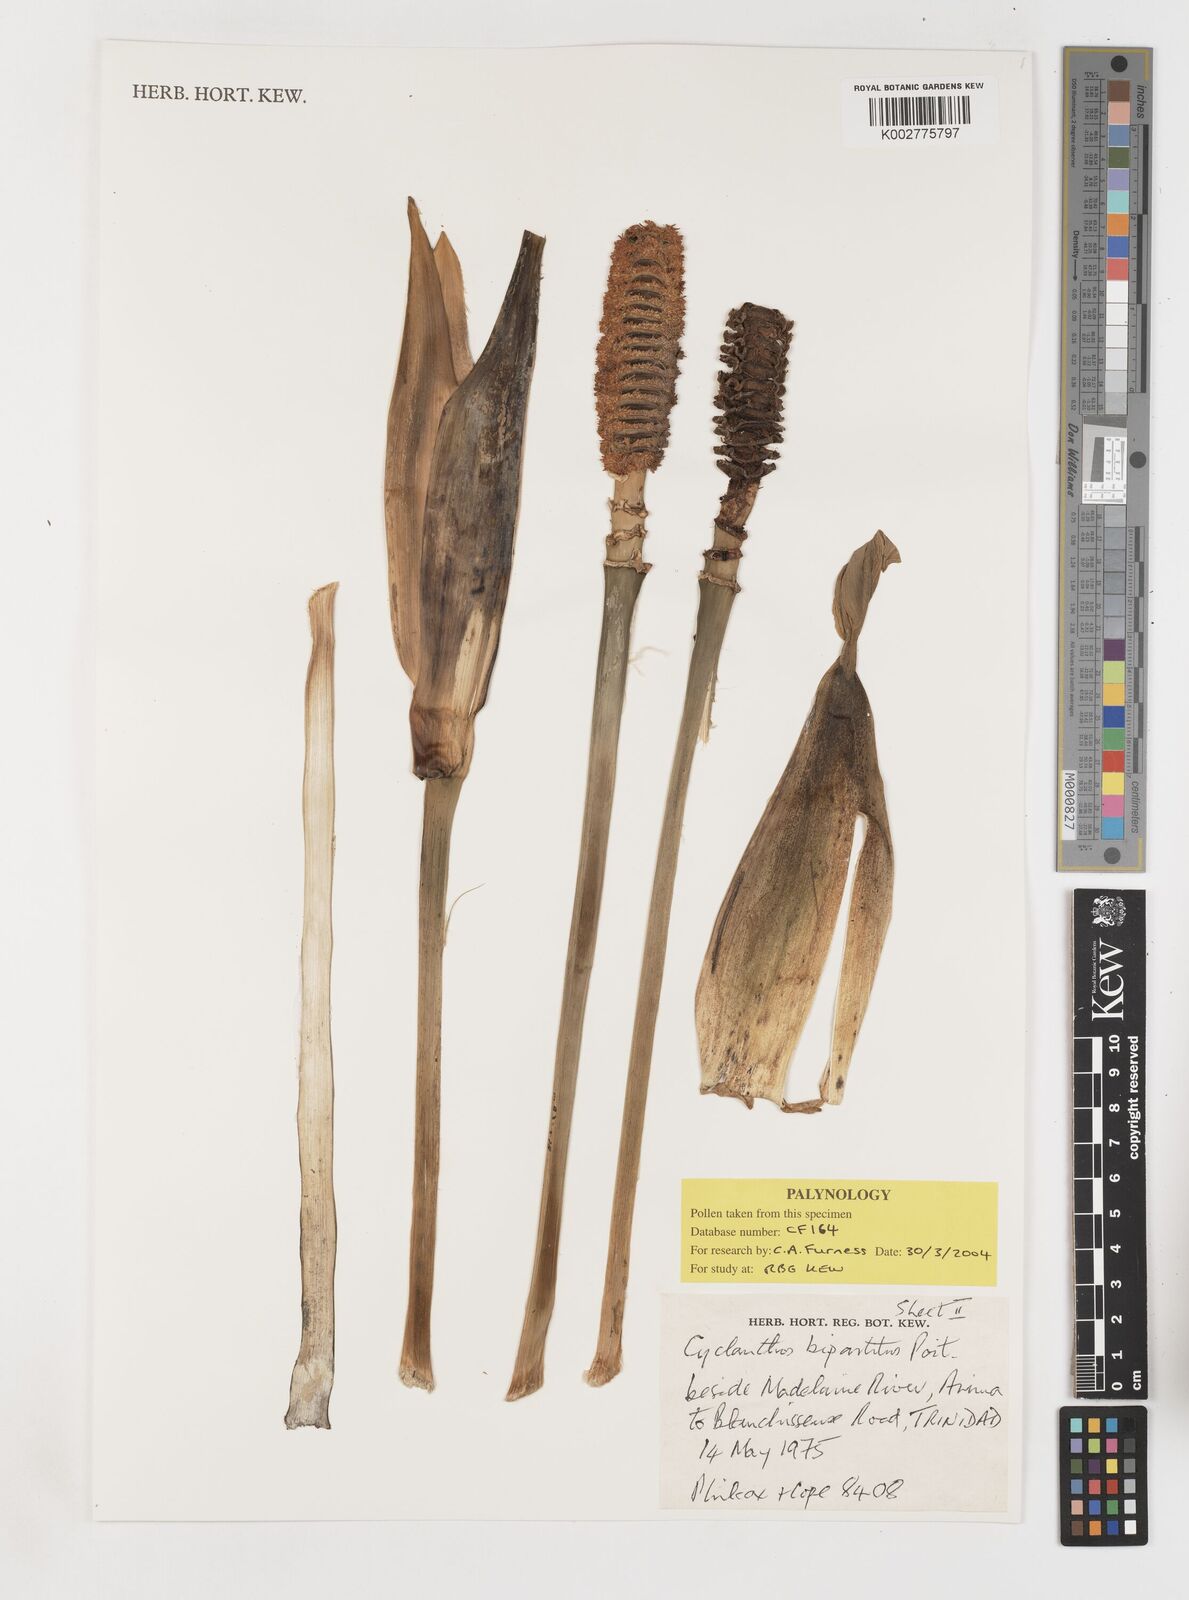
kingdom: Plantae
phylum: Tracheophyta
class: Liliopsida
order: Pandanales
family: Cyclanthaceae
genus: Cyclanthus
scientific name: Cyclanthus bipartitus
